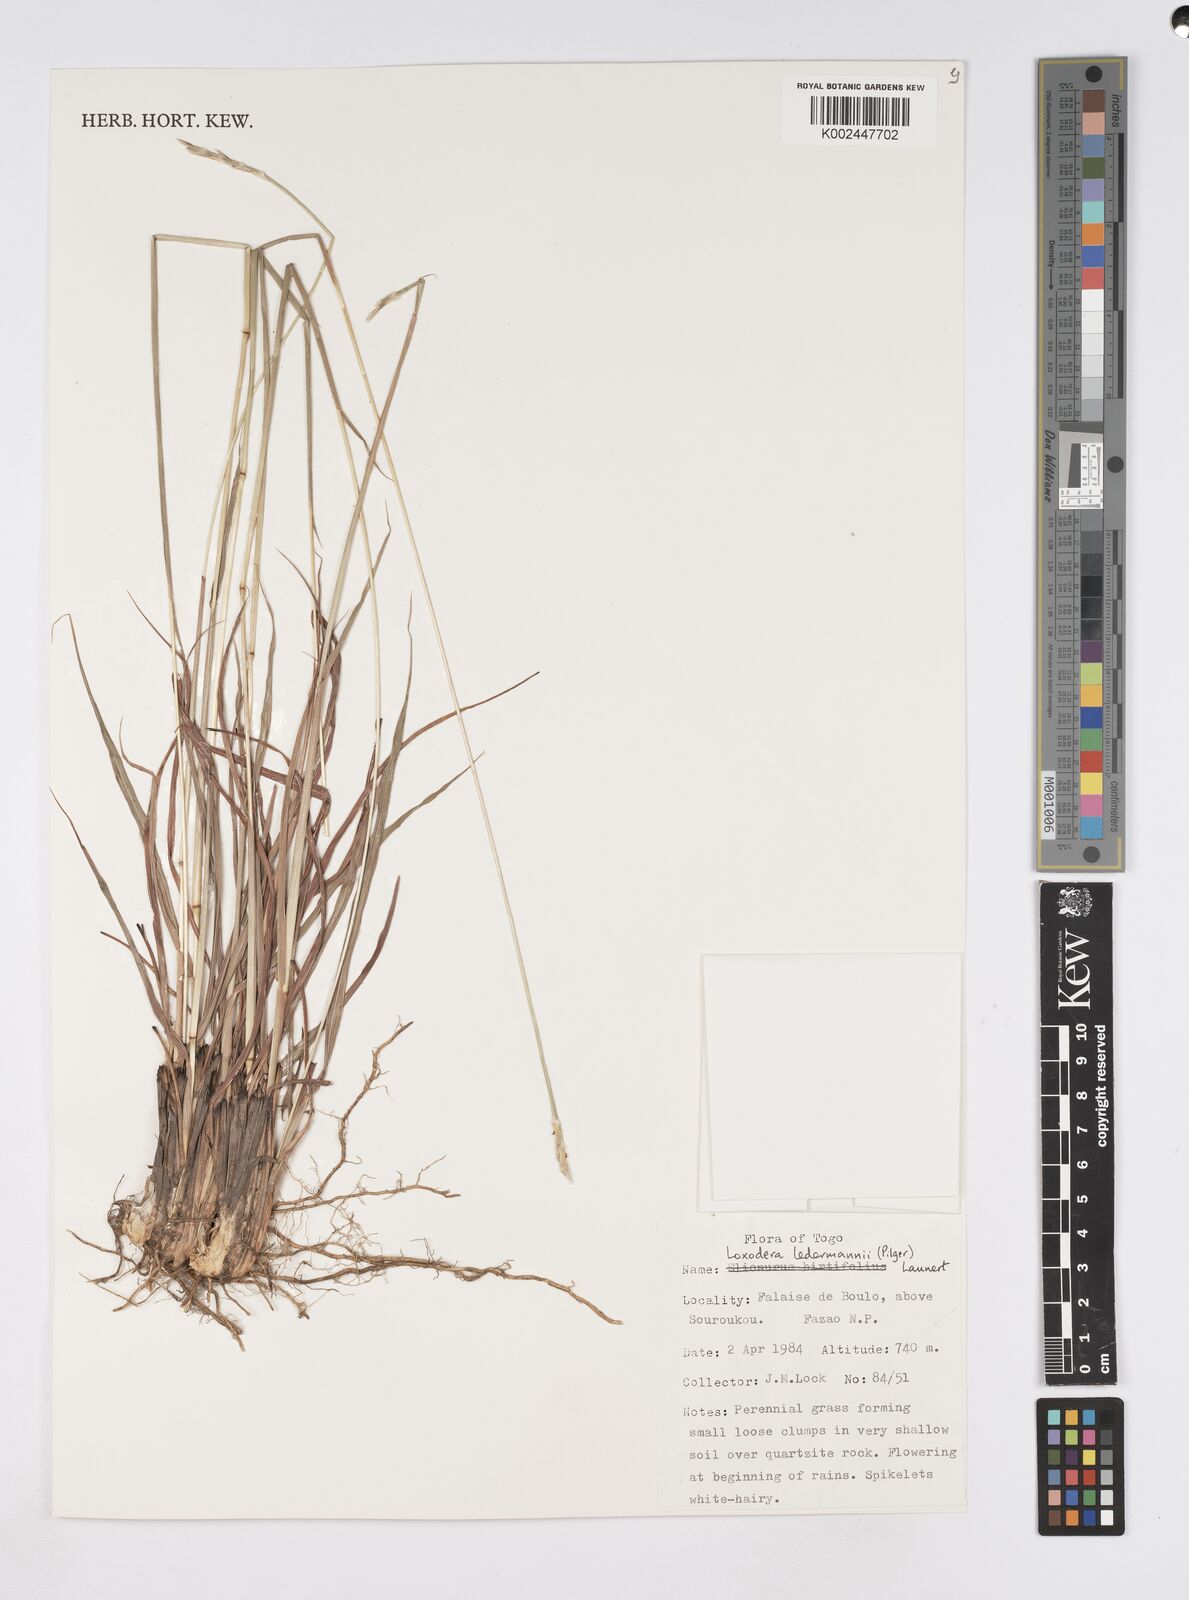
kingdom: Plantae
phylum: Tracheophyta
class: Liliopsida
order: Poales
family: Poaceae
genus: Loxodera
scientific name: Loxodera ledermannii
